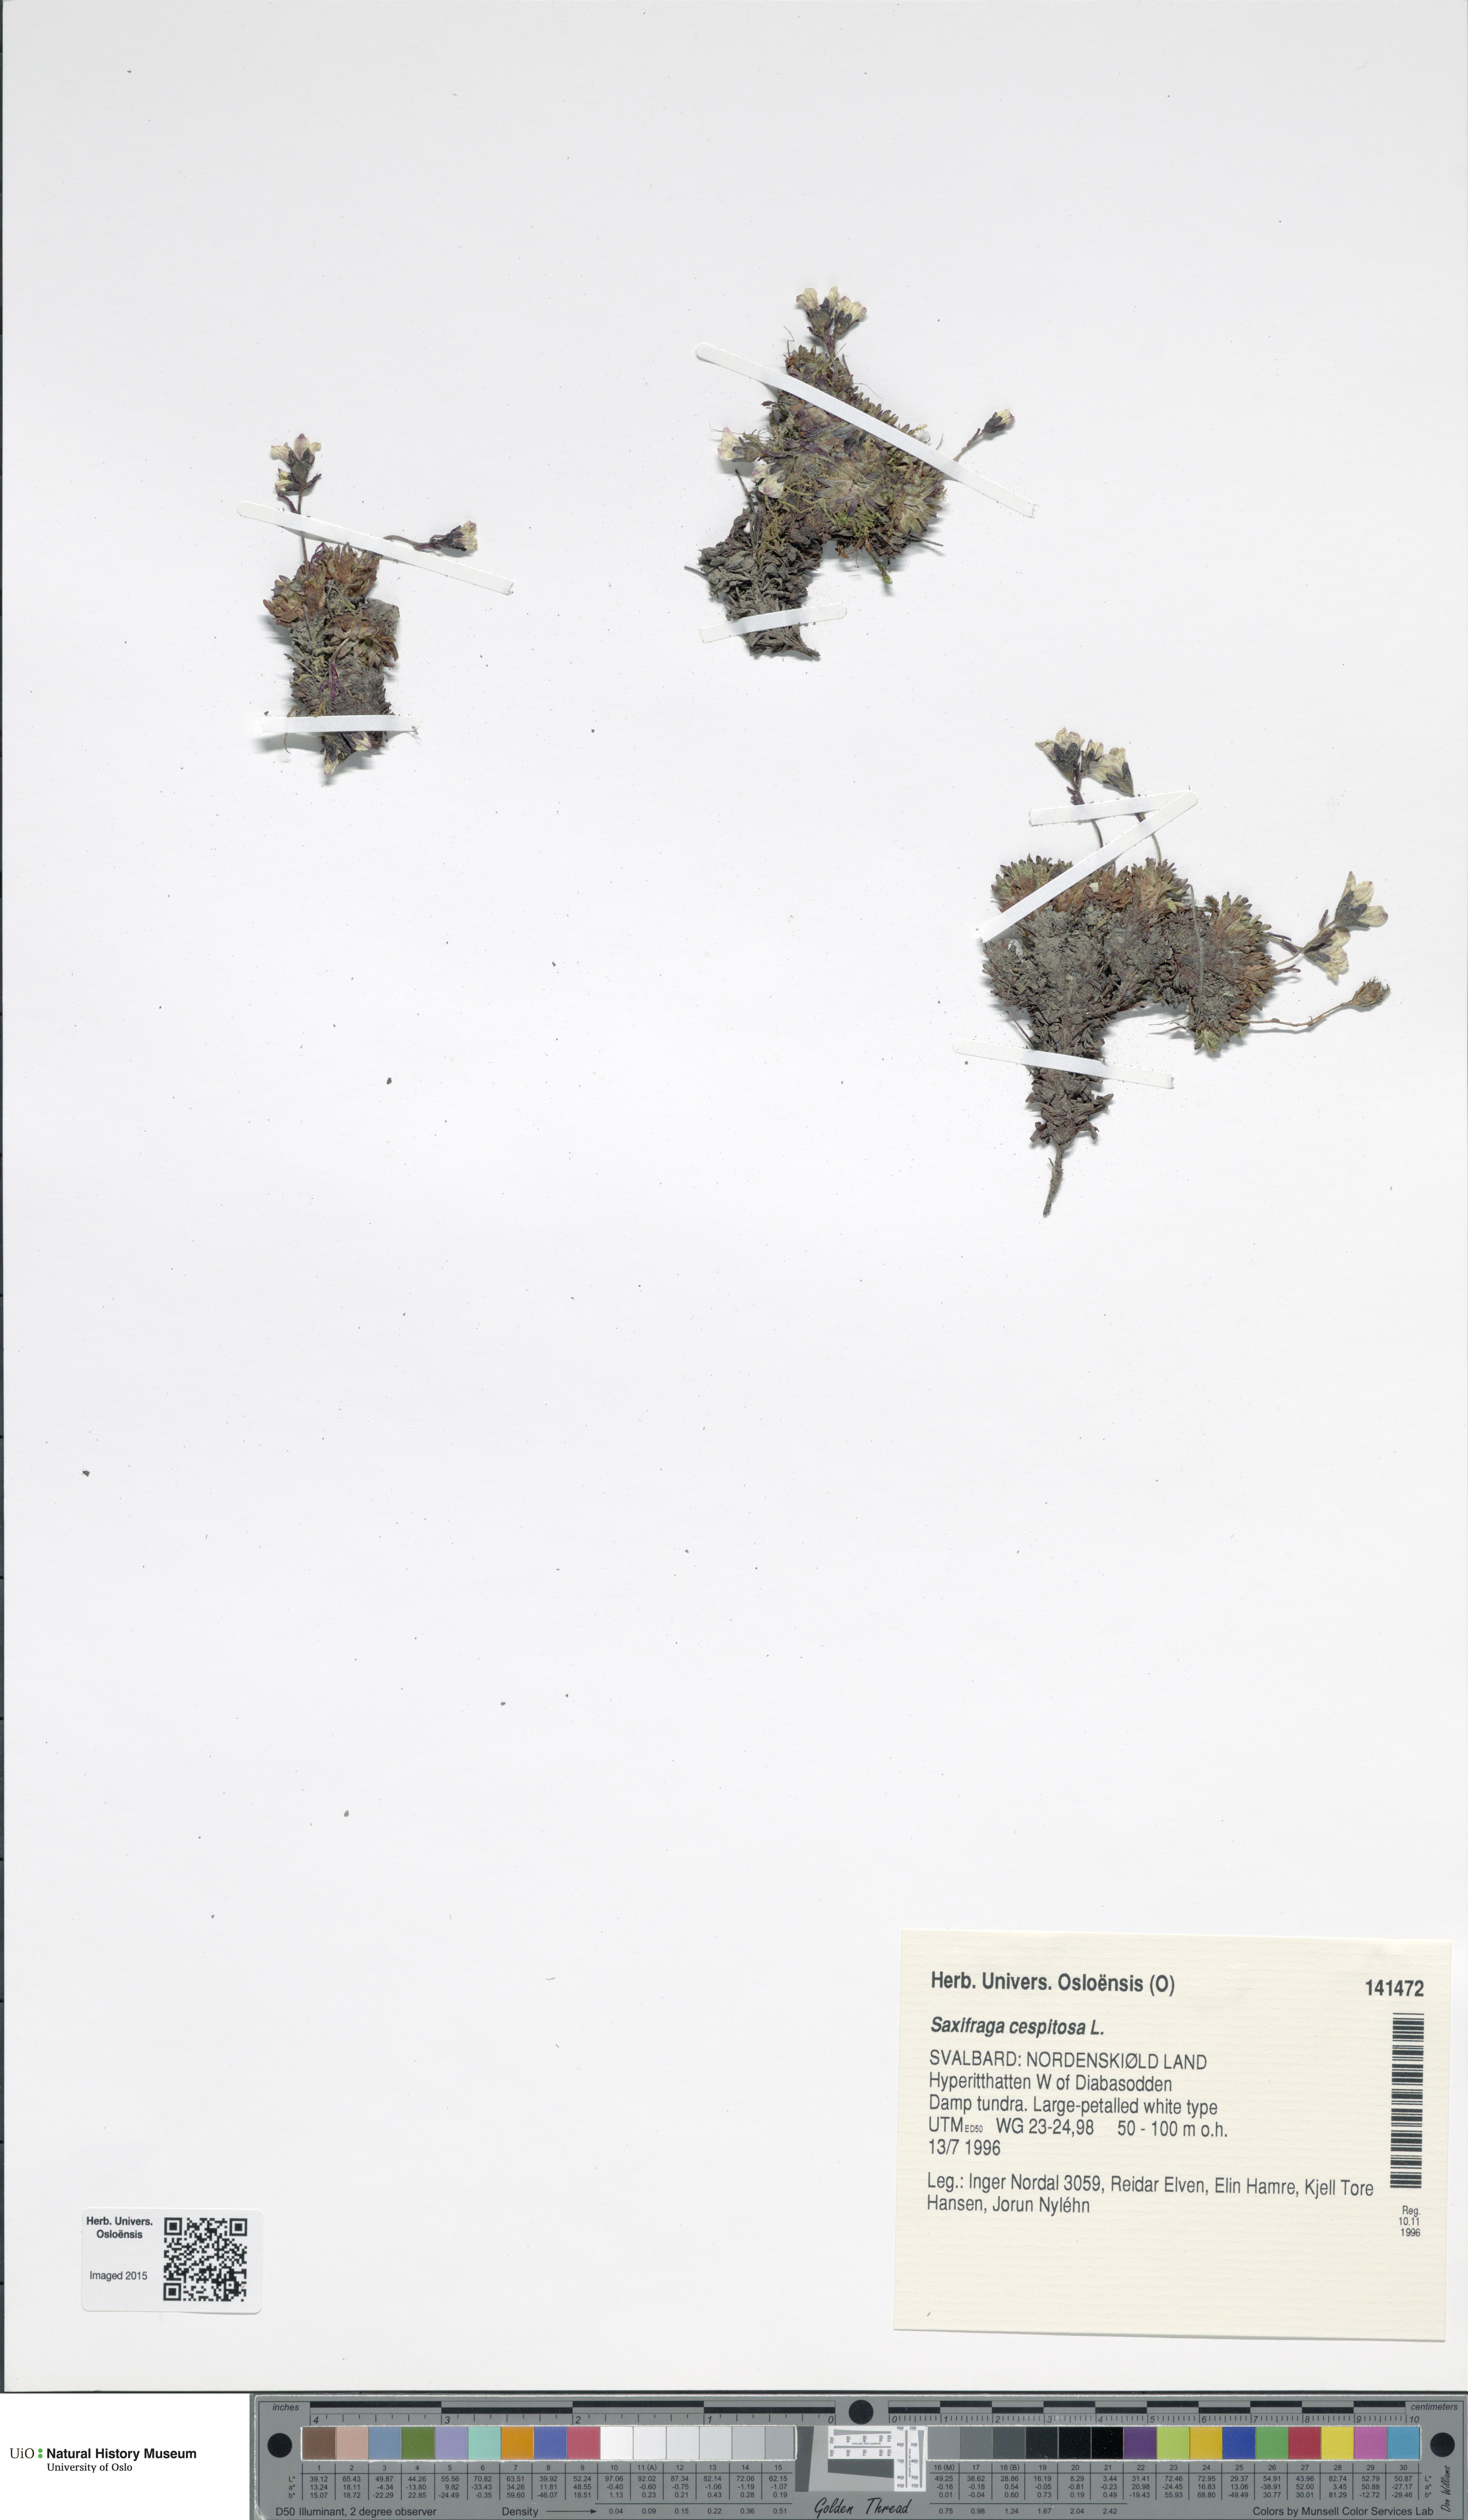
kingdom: Plantae
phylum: Tracheophyta
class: Magnoliopsida
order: Saxifragales
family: Saxifragaceae
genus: Saxifraga
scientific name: Saxifraga cespitosa
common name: Tufted saxifrage
